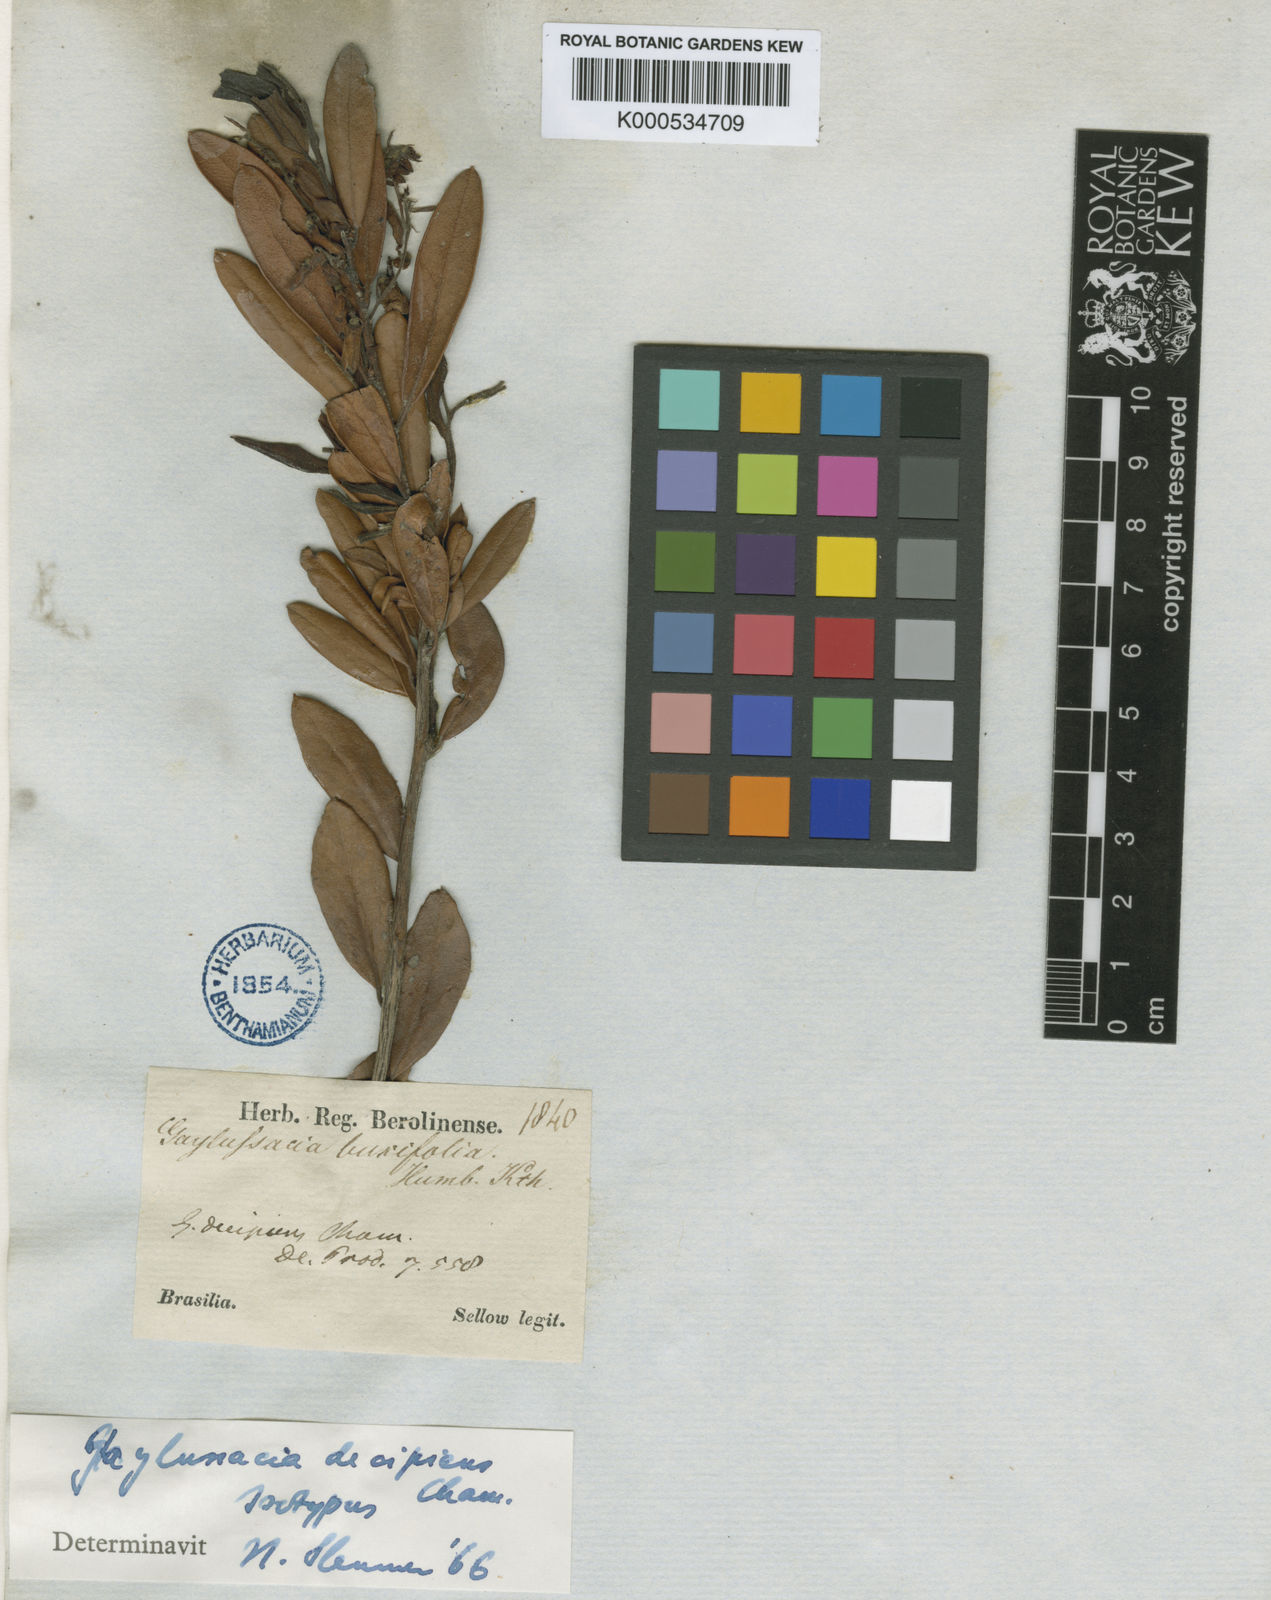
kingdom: Plantae
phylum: Tracheophyta
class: Magnoliopsida
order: Ericales
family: Ericaceae
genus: Gaylussacia
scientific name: Gaylussacia decipiens
